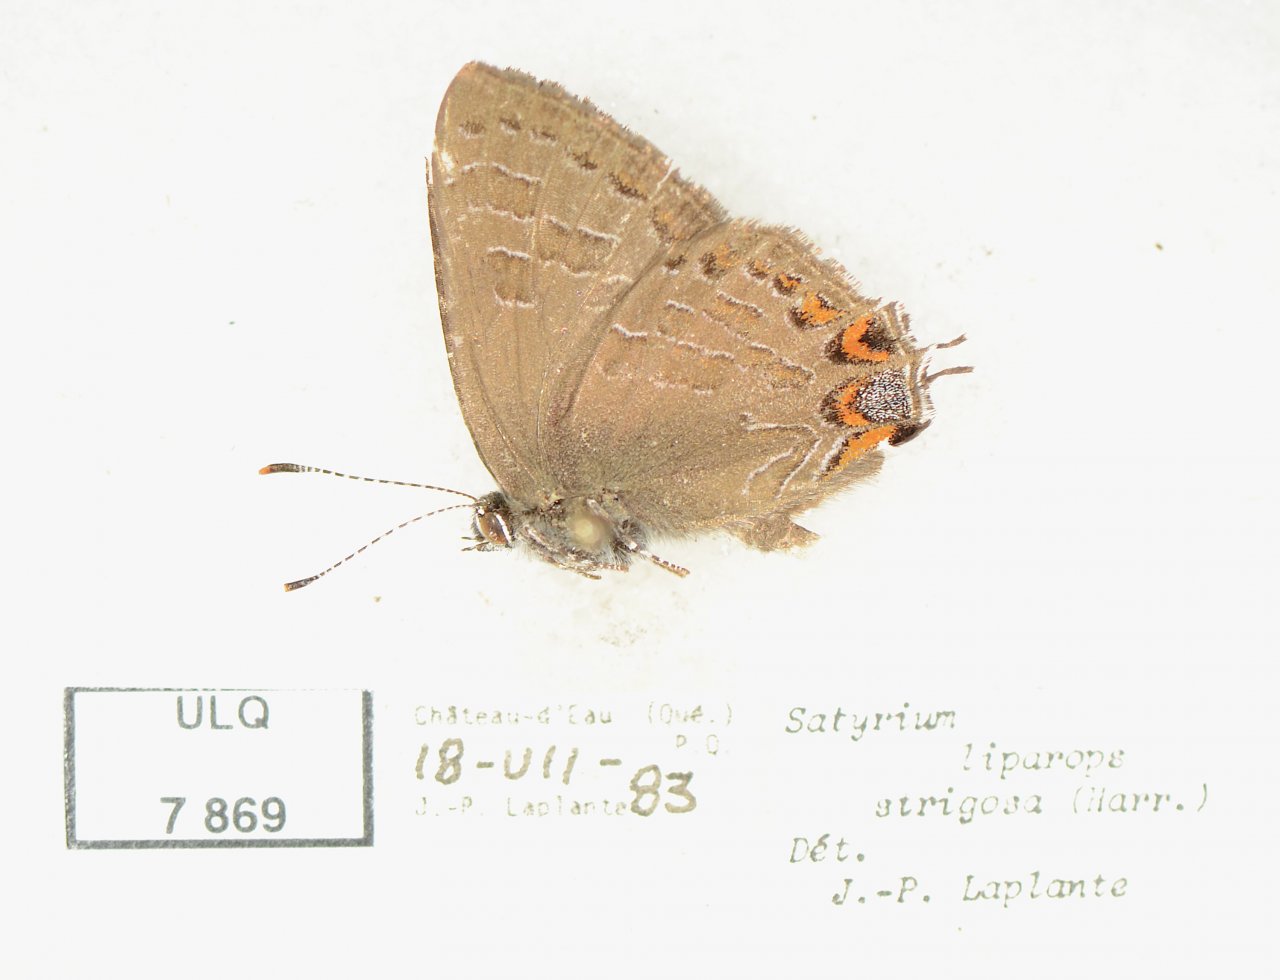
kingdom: Animalia
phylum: Arthropoda
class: Insecta
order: Lepidoptera
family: Lycaenidae
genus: Satyrium
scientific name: Satyrium liparops
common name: Striped Hairstreak
